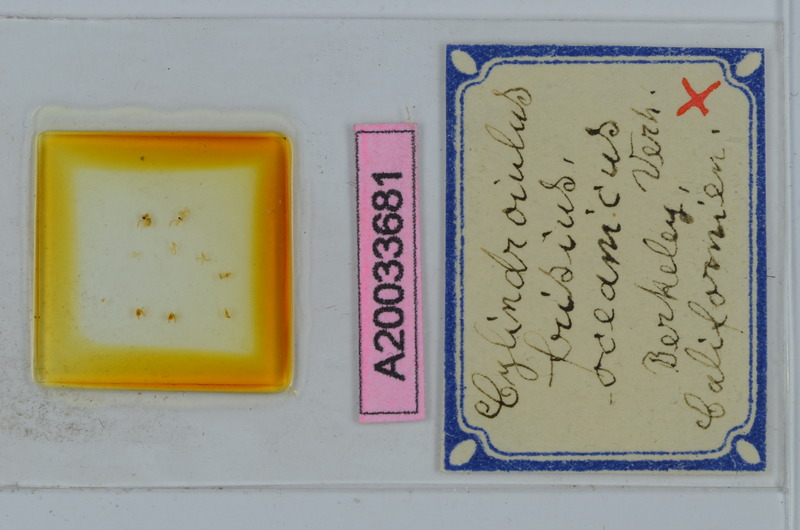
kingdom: Animalia
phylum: Arthropoda
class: Diplopoda
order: Julida
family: Julidae
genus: Cylindroiulus
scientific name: Cylindroiulus frisius
